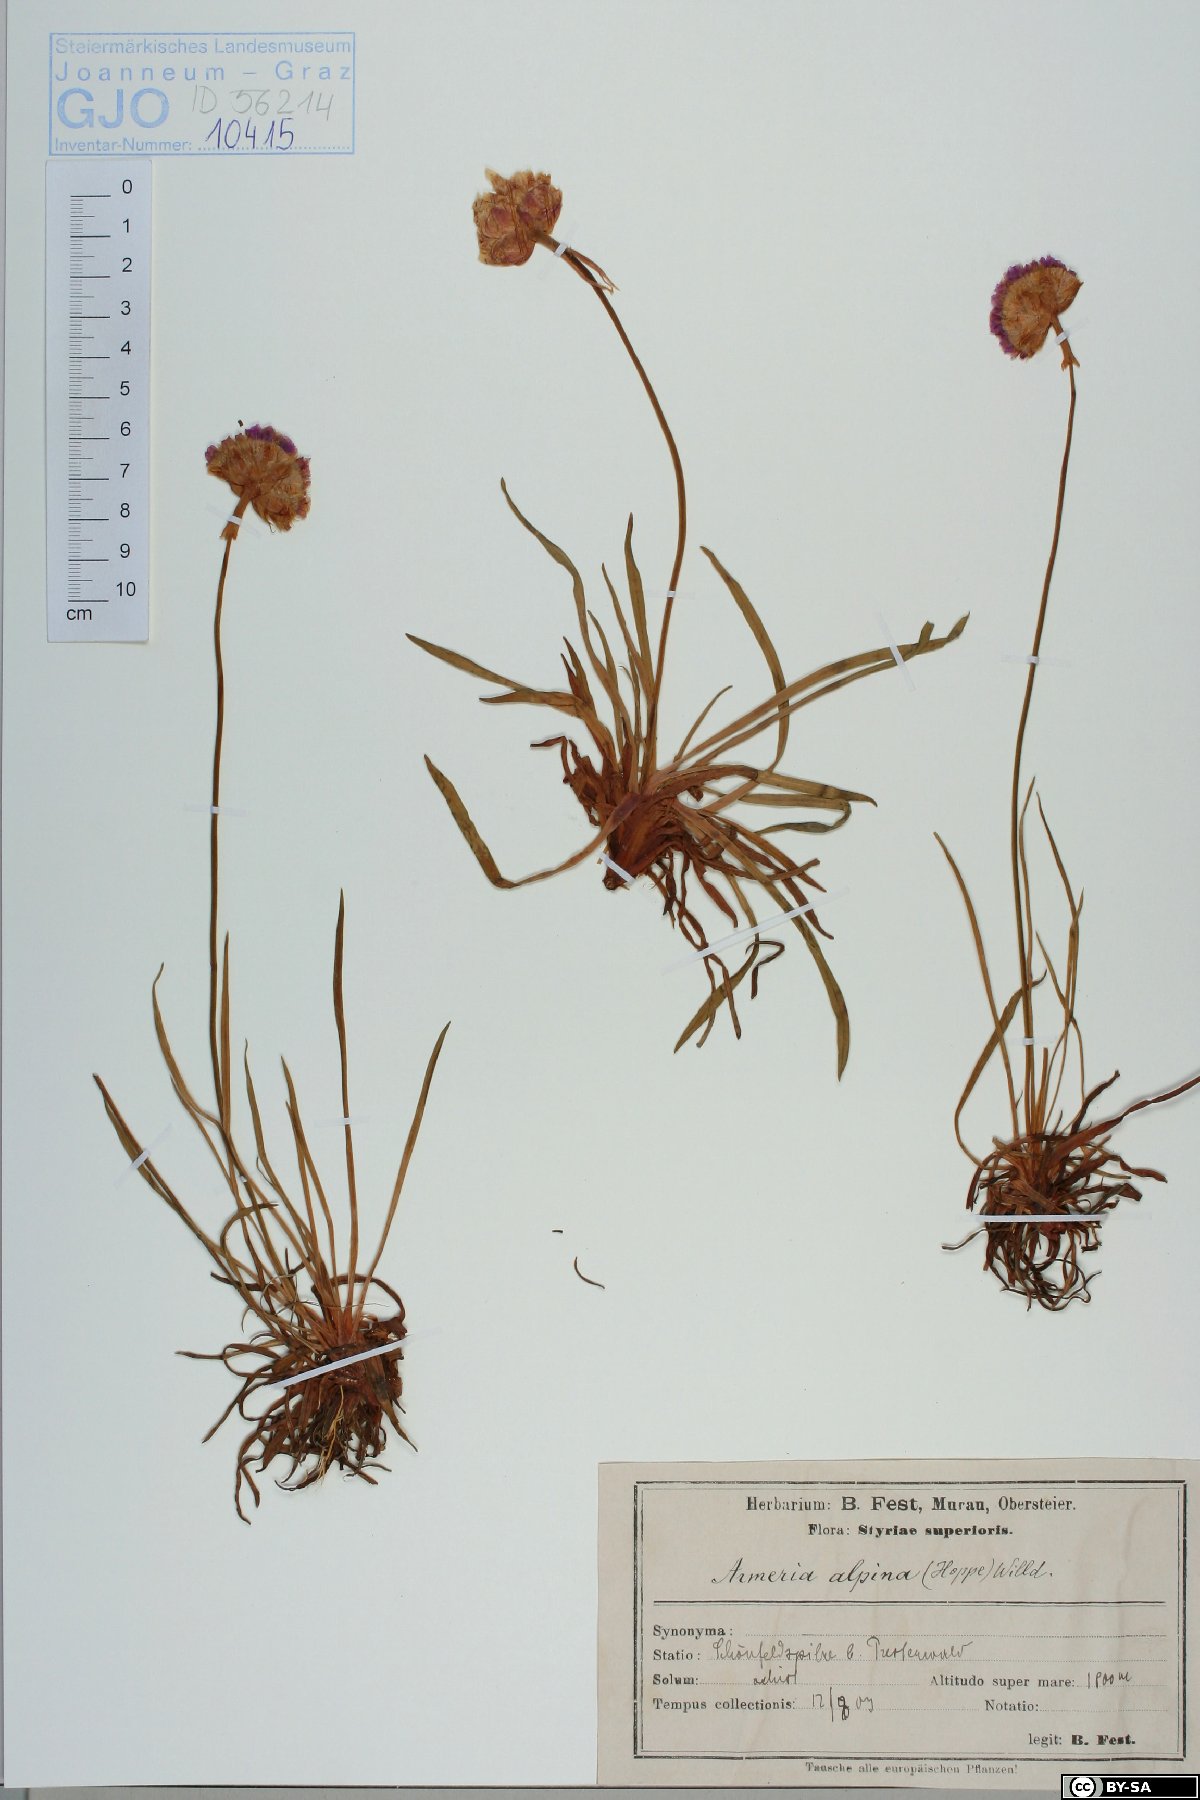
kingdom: Plantae
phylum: Tracheophyta
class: Magnoliopsida
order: Caryophyllales
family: Plumbaginaceae
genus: Armeria
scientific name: Armeria alpina
